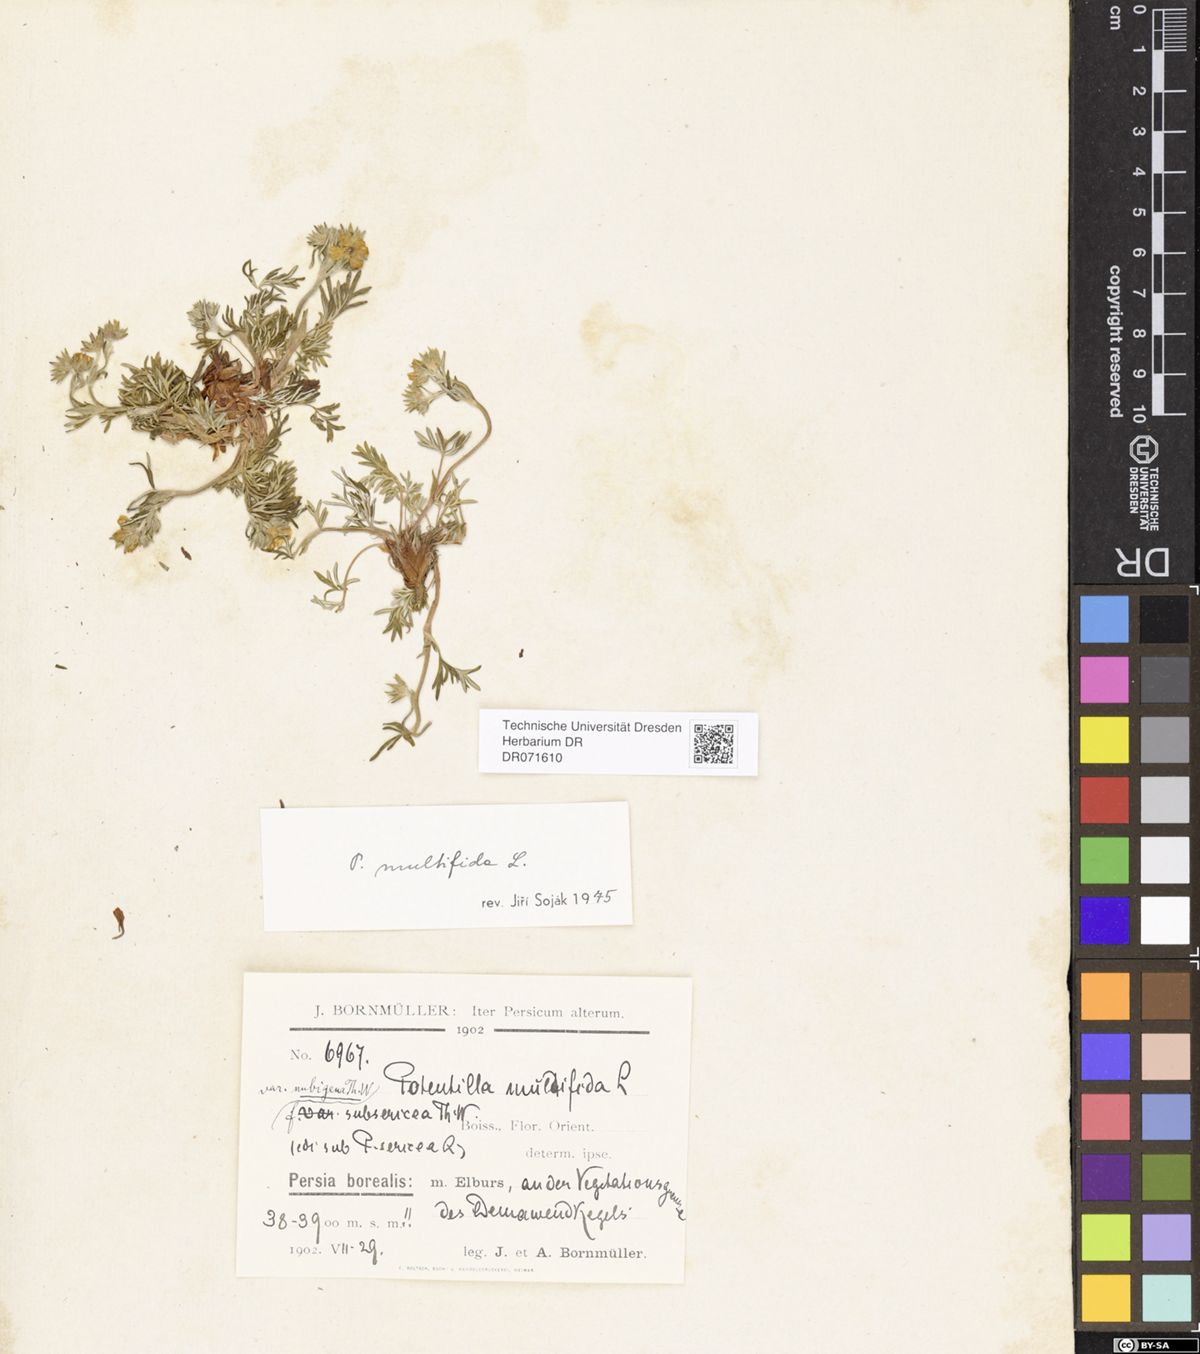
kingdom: Plantae
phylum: Tracheophyta
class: Magnoliopsida
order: Rosales
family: Rosaceae
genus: Potentilla
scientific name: Potentilla multifida
